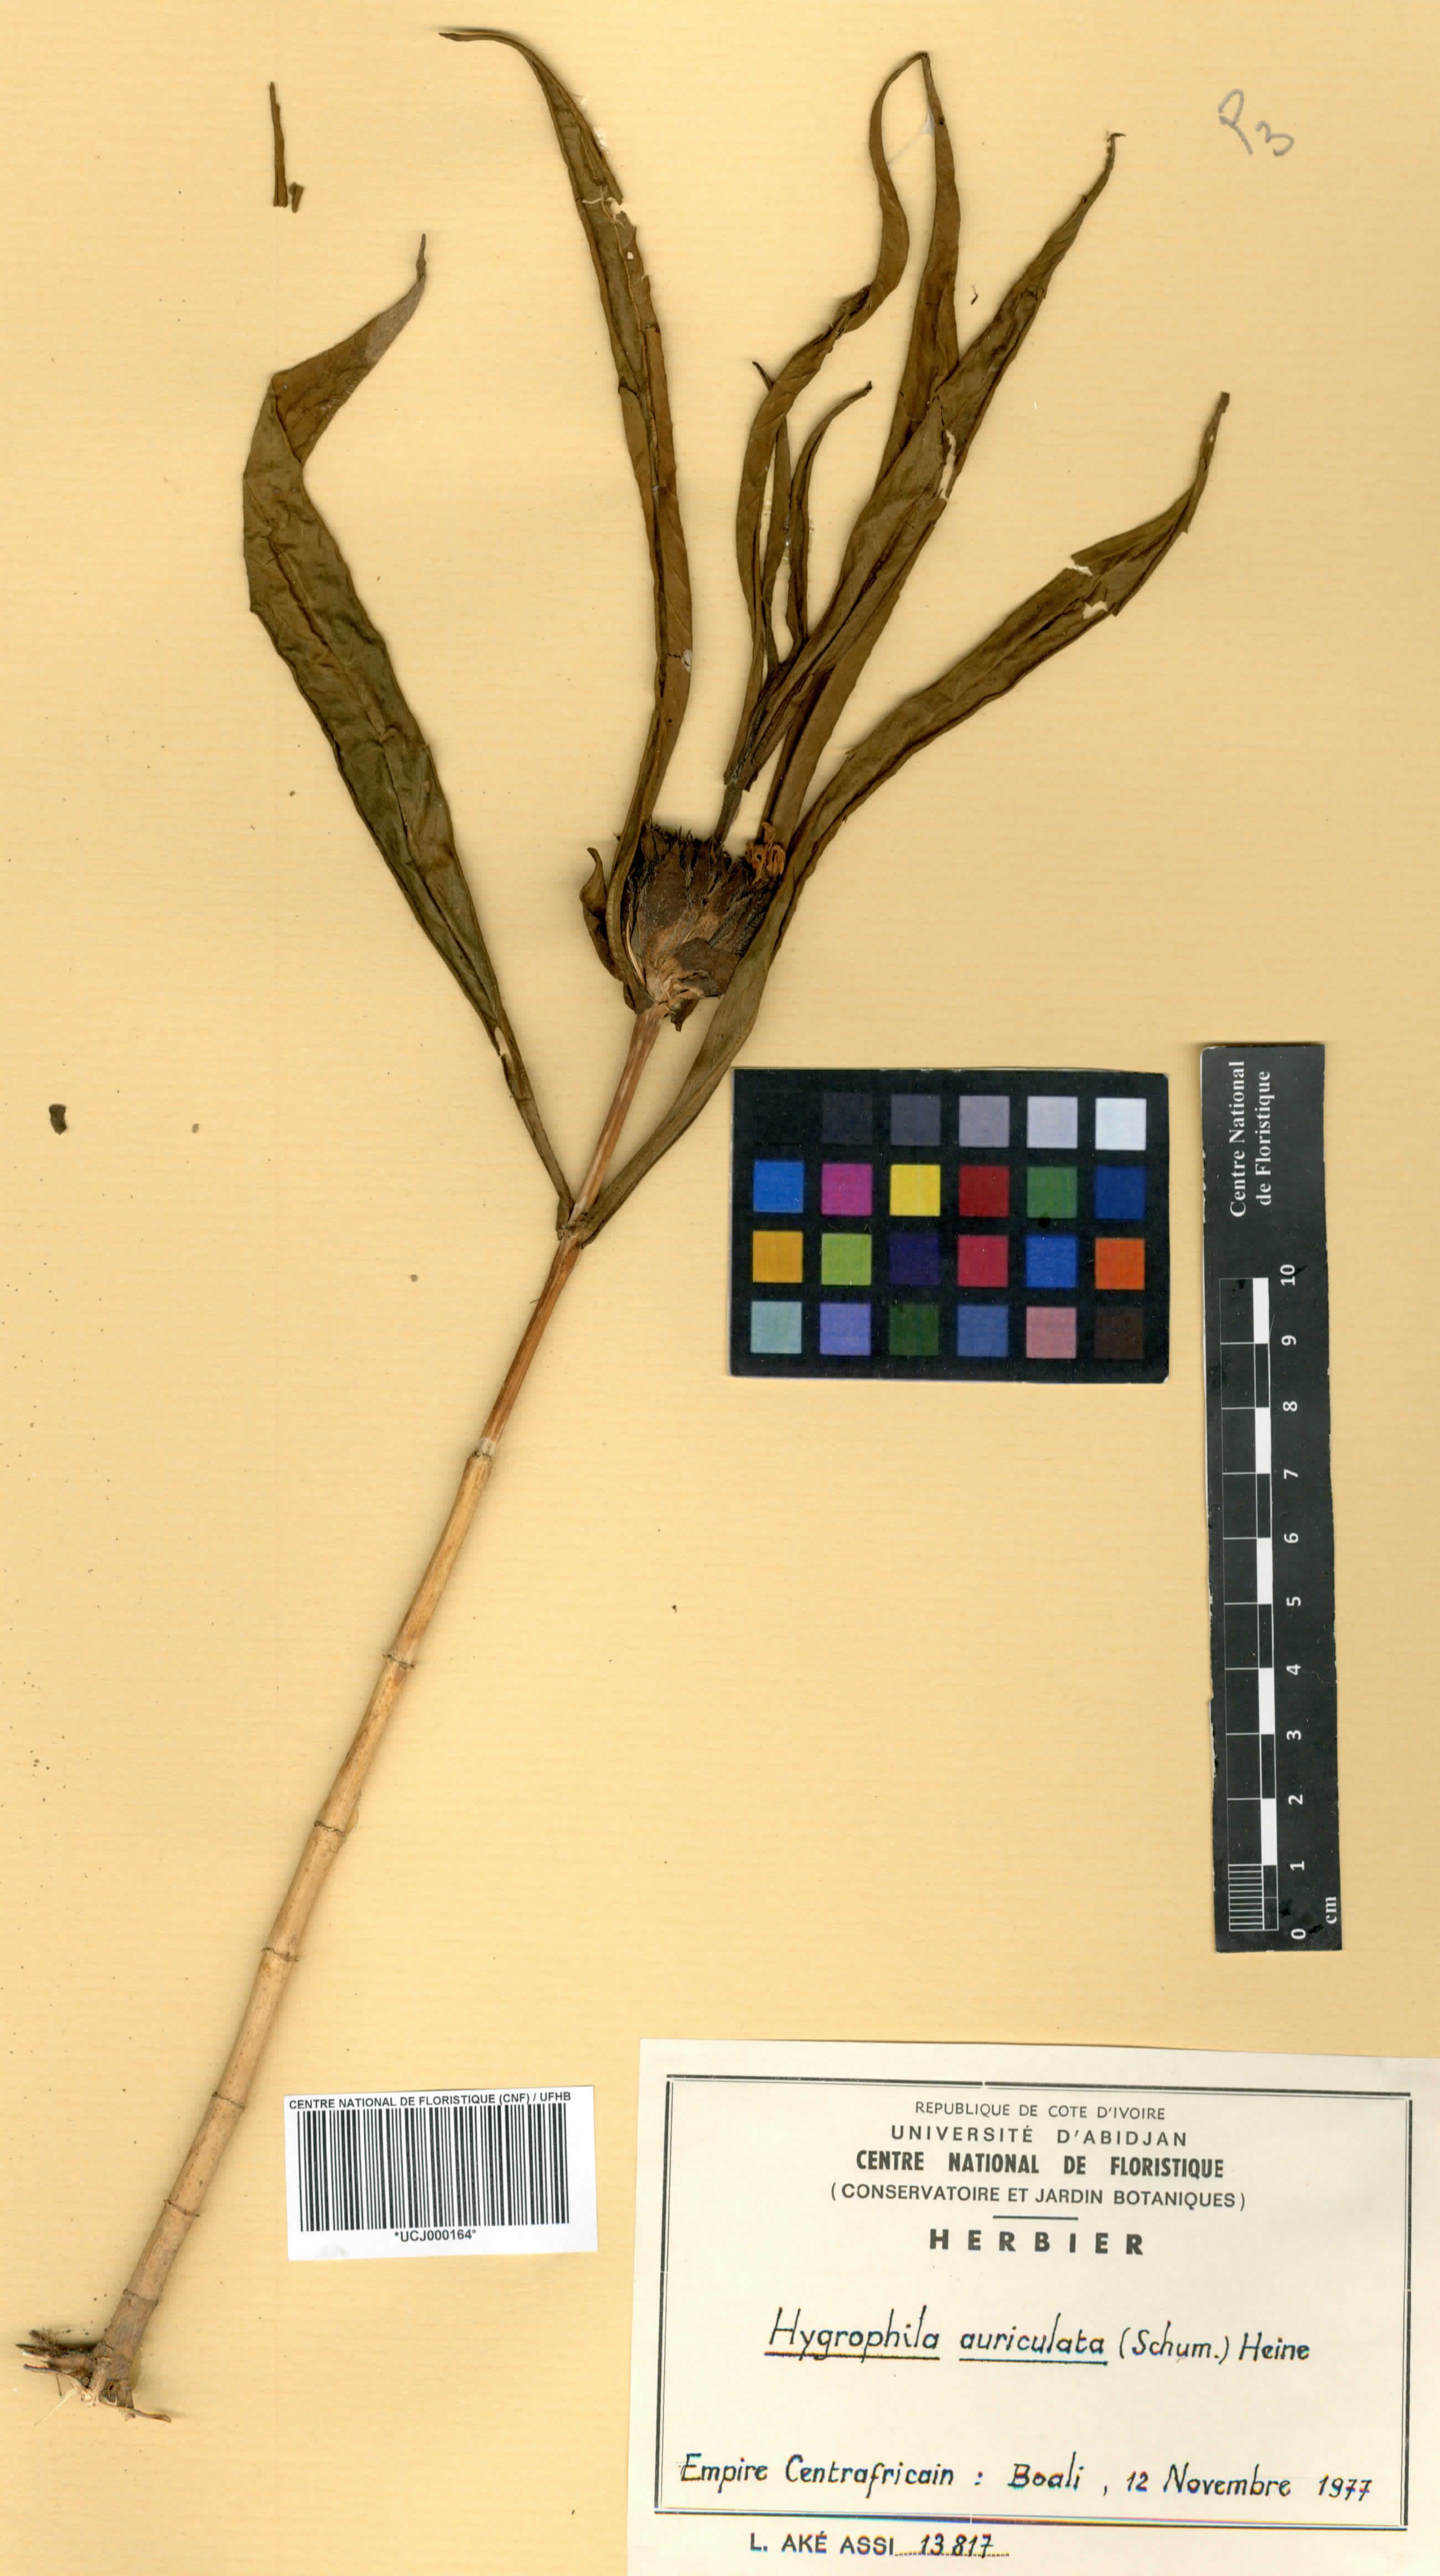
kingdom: Plantae
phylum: Tracheophyta
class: Magnoliopsida
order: Lamiales
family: Acanthaceae
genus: Hygrophila
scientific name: Hygrophila auriculata
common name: Hygrophila
